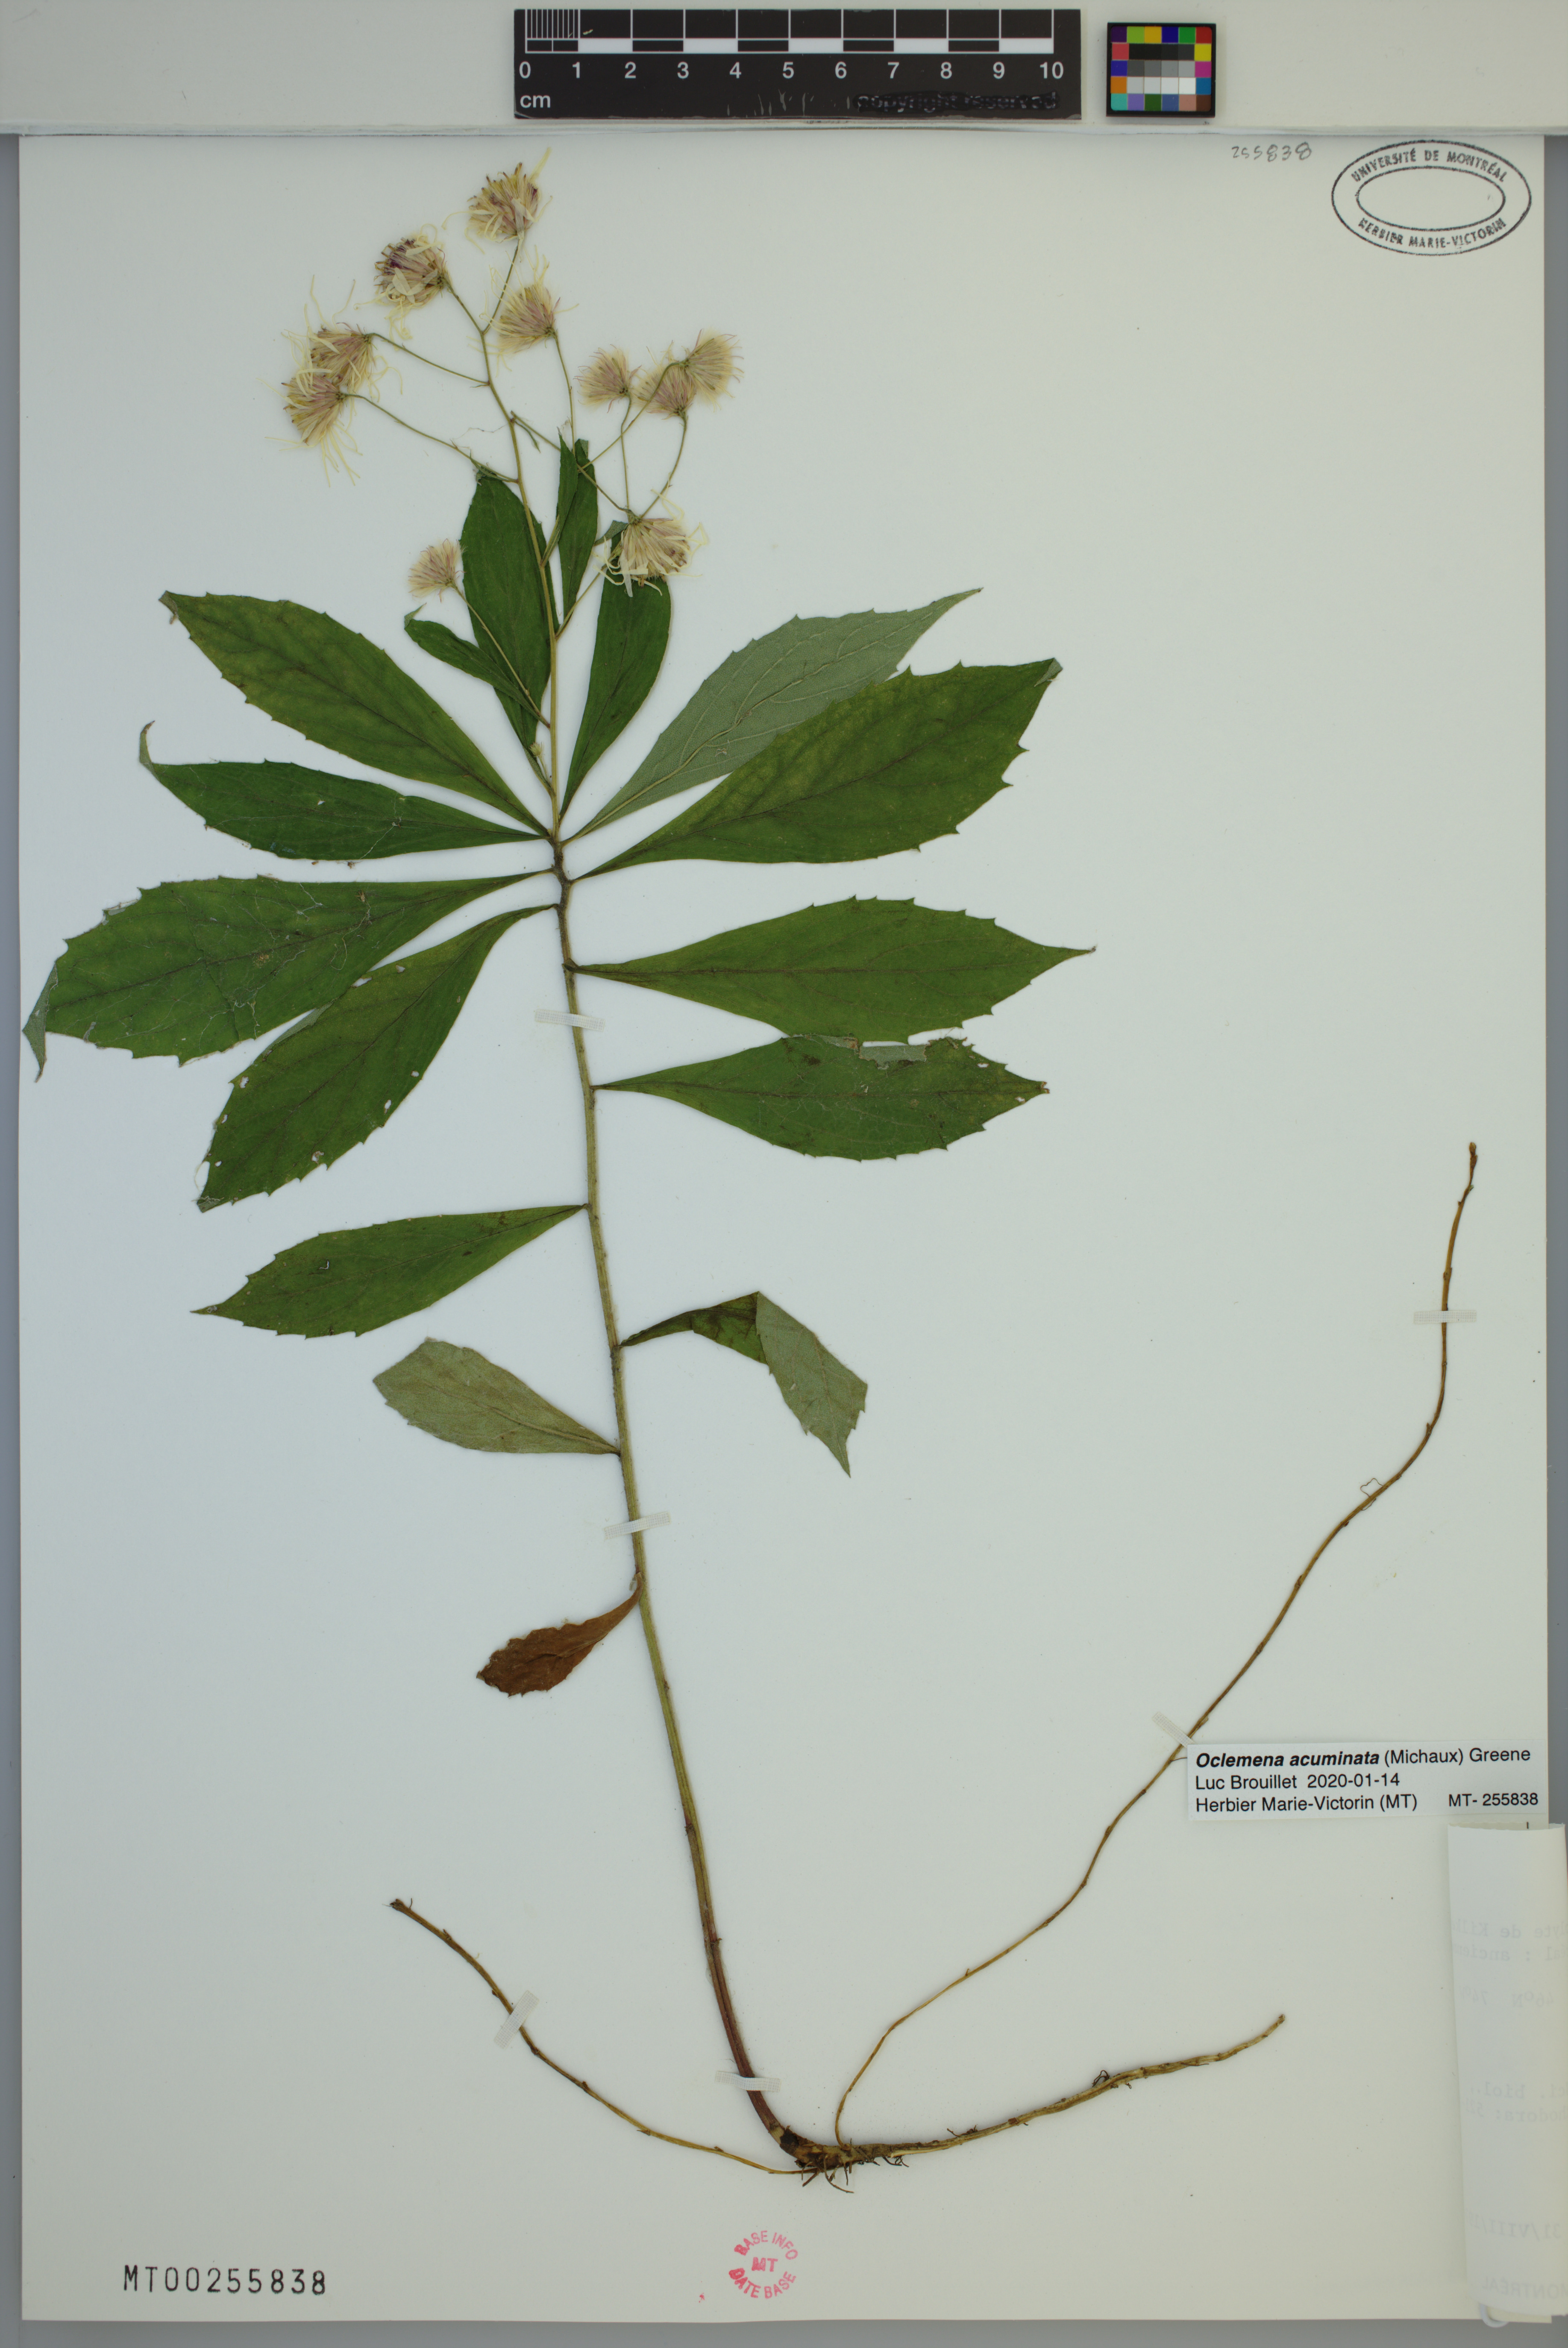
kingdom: Plantae
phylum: Tracheophyta
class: Magnoliopsida
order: Asterales
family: Asteraceae
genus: Oclemena
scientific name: Oclemena acuminata
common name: Mountain aster
